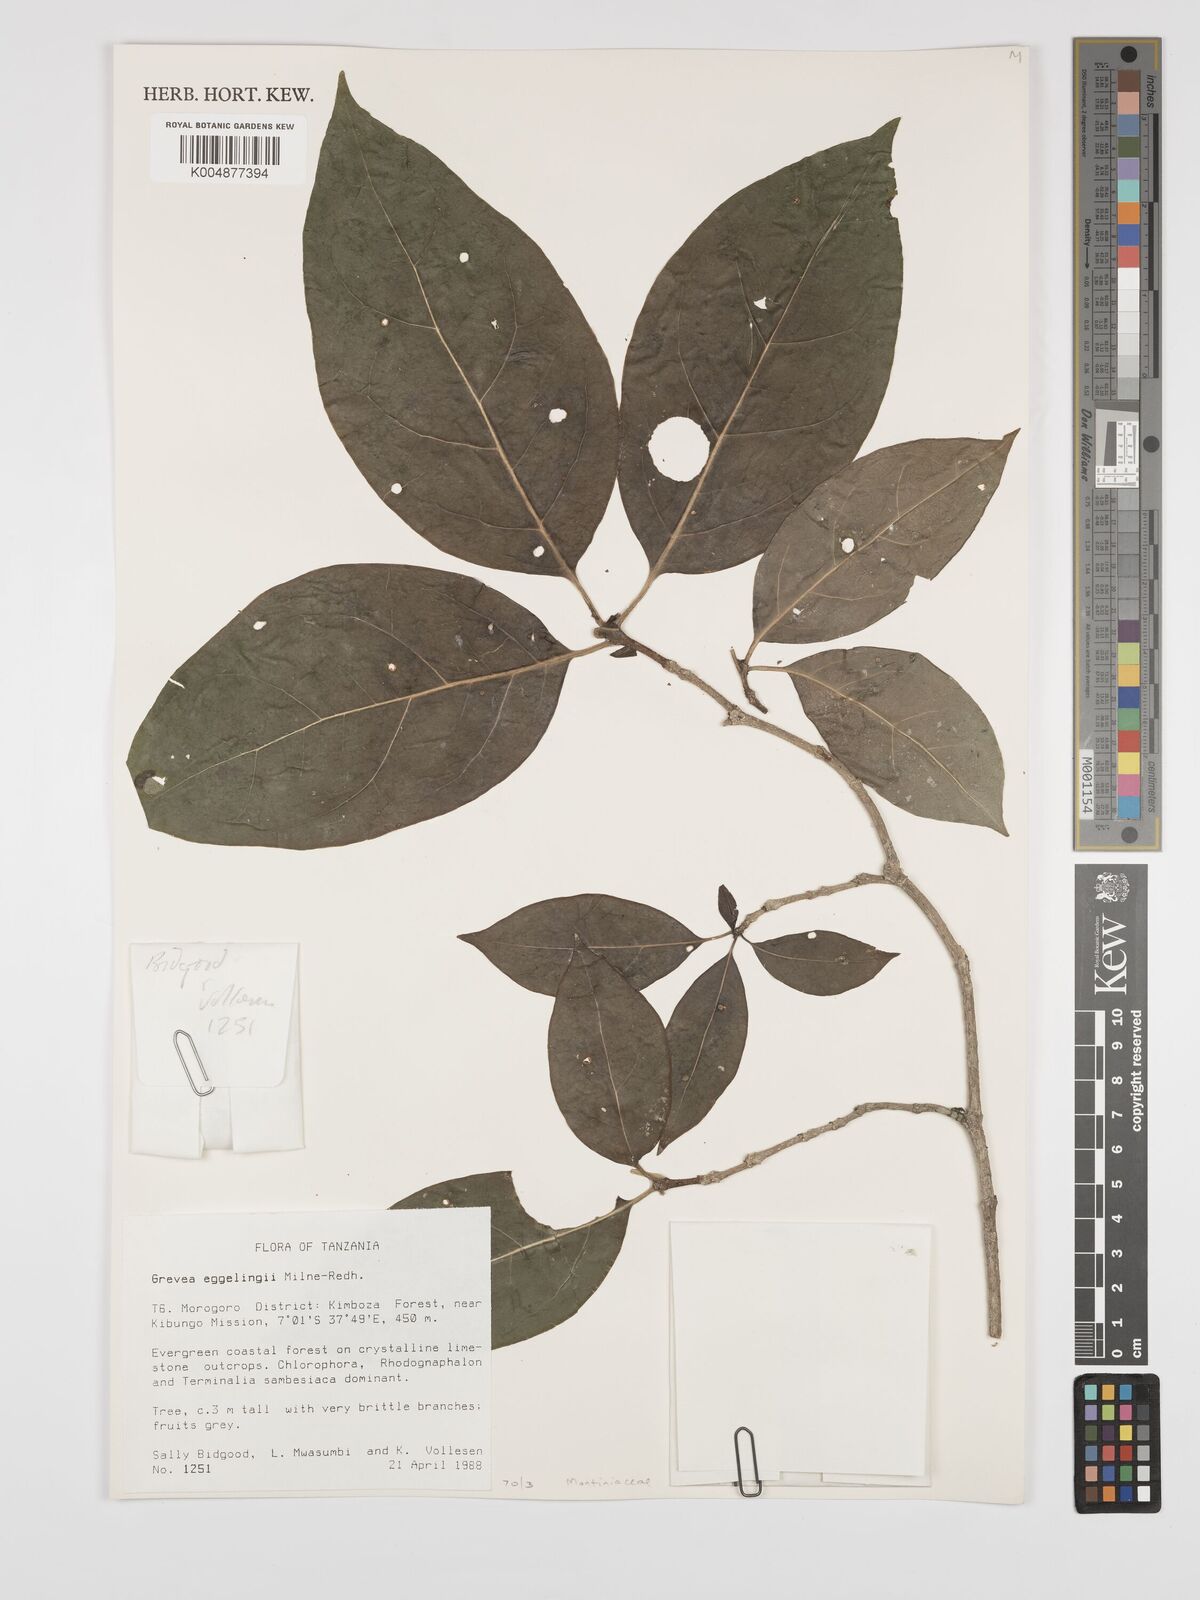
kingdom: Plantae
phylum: Tracheophyta
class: Magnoliopsida
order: Solanales
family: Montiniaceae
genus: Grevea
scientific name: Grevea eggelingii
